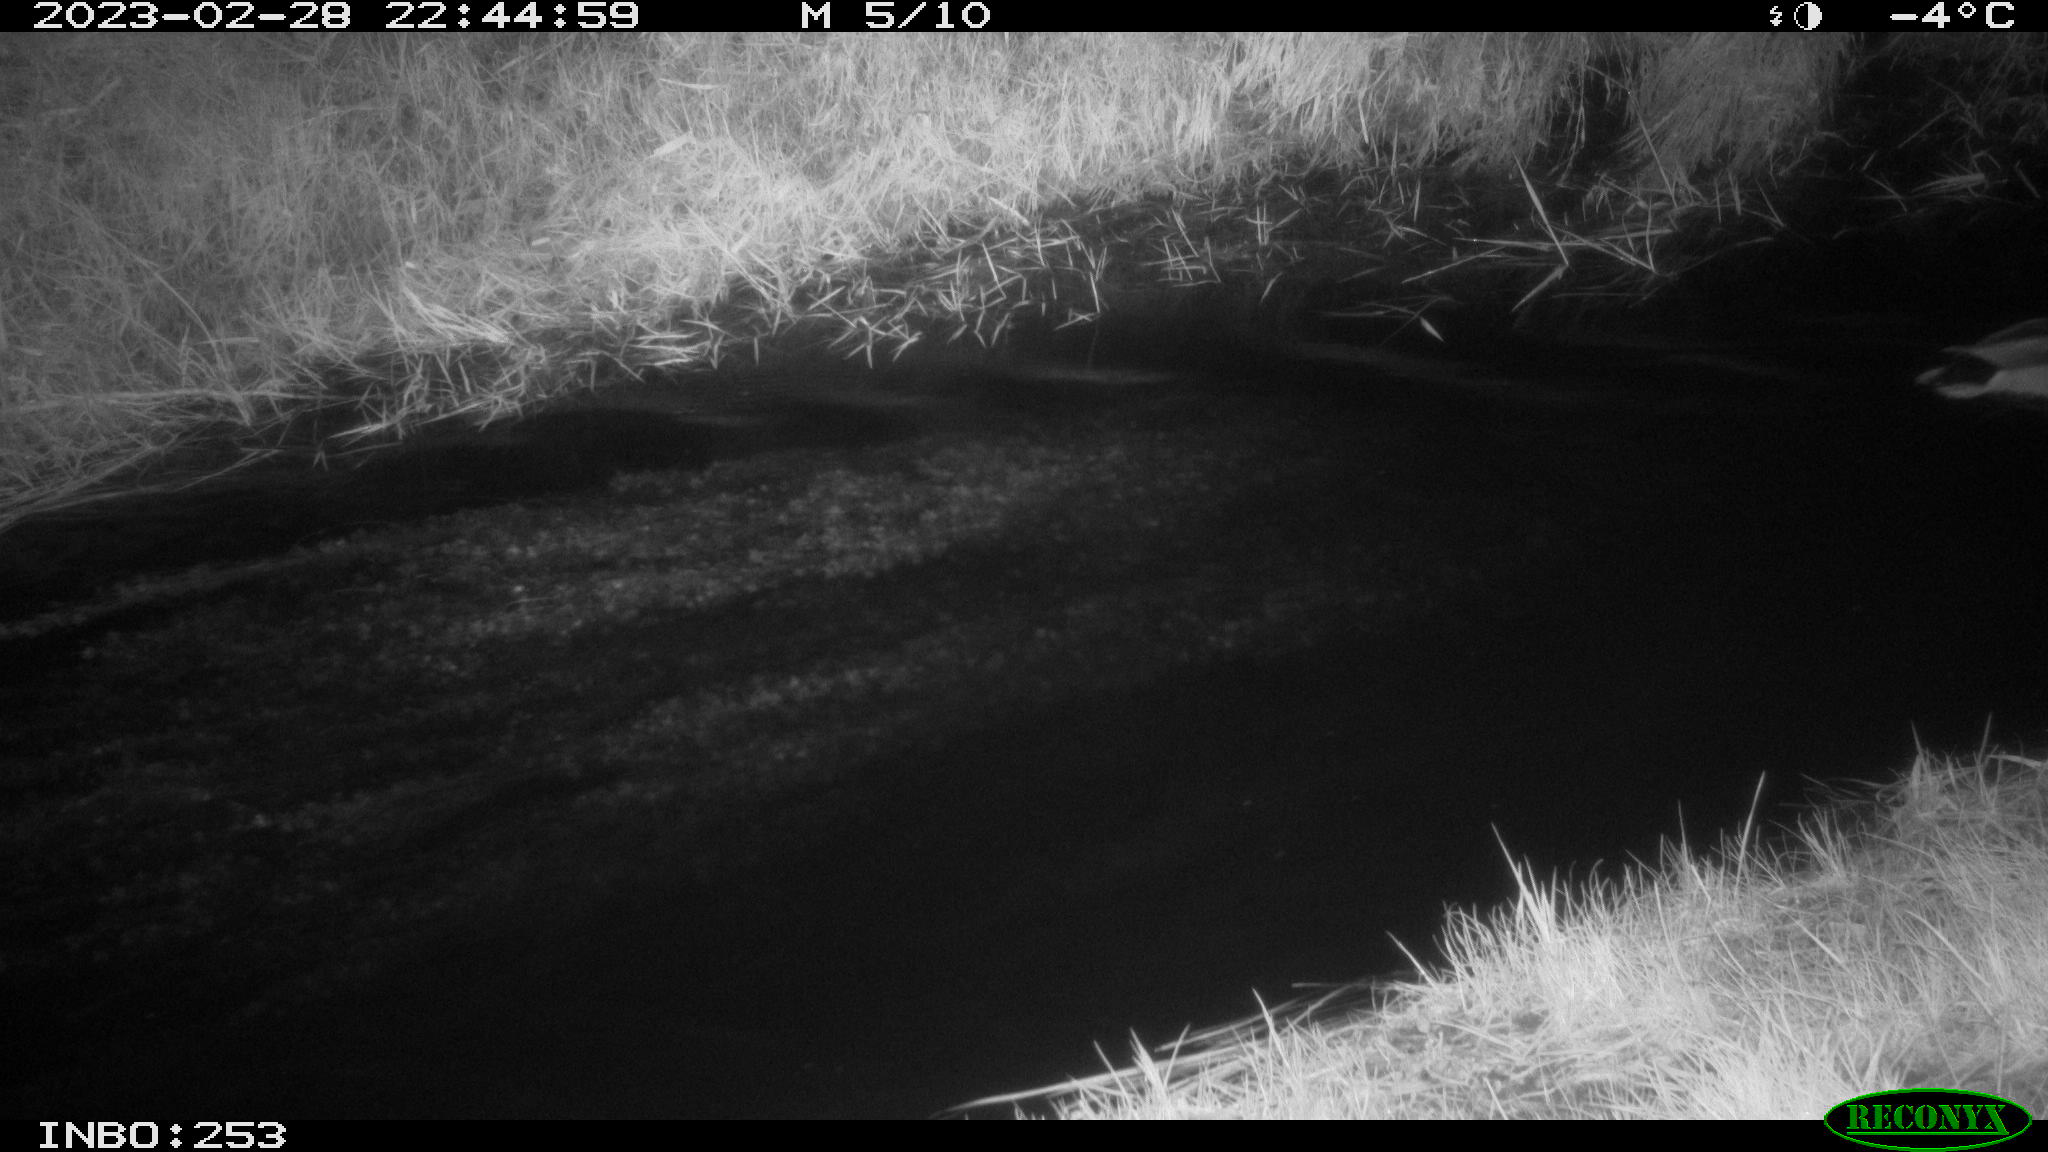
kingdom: Animalia
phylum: Chordata
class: Aves
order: Anseriformes
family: Anatidae
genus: Anas
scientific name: Anas
